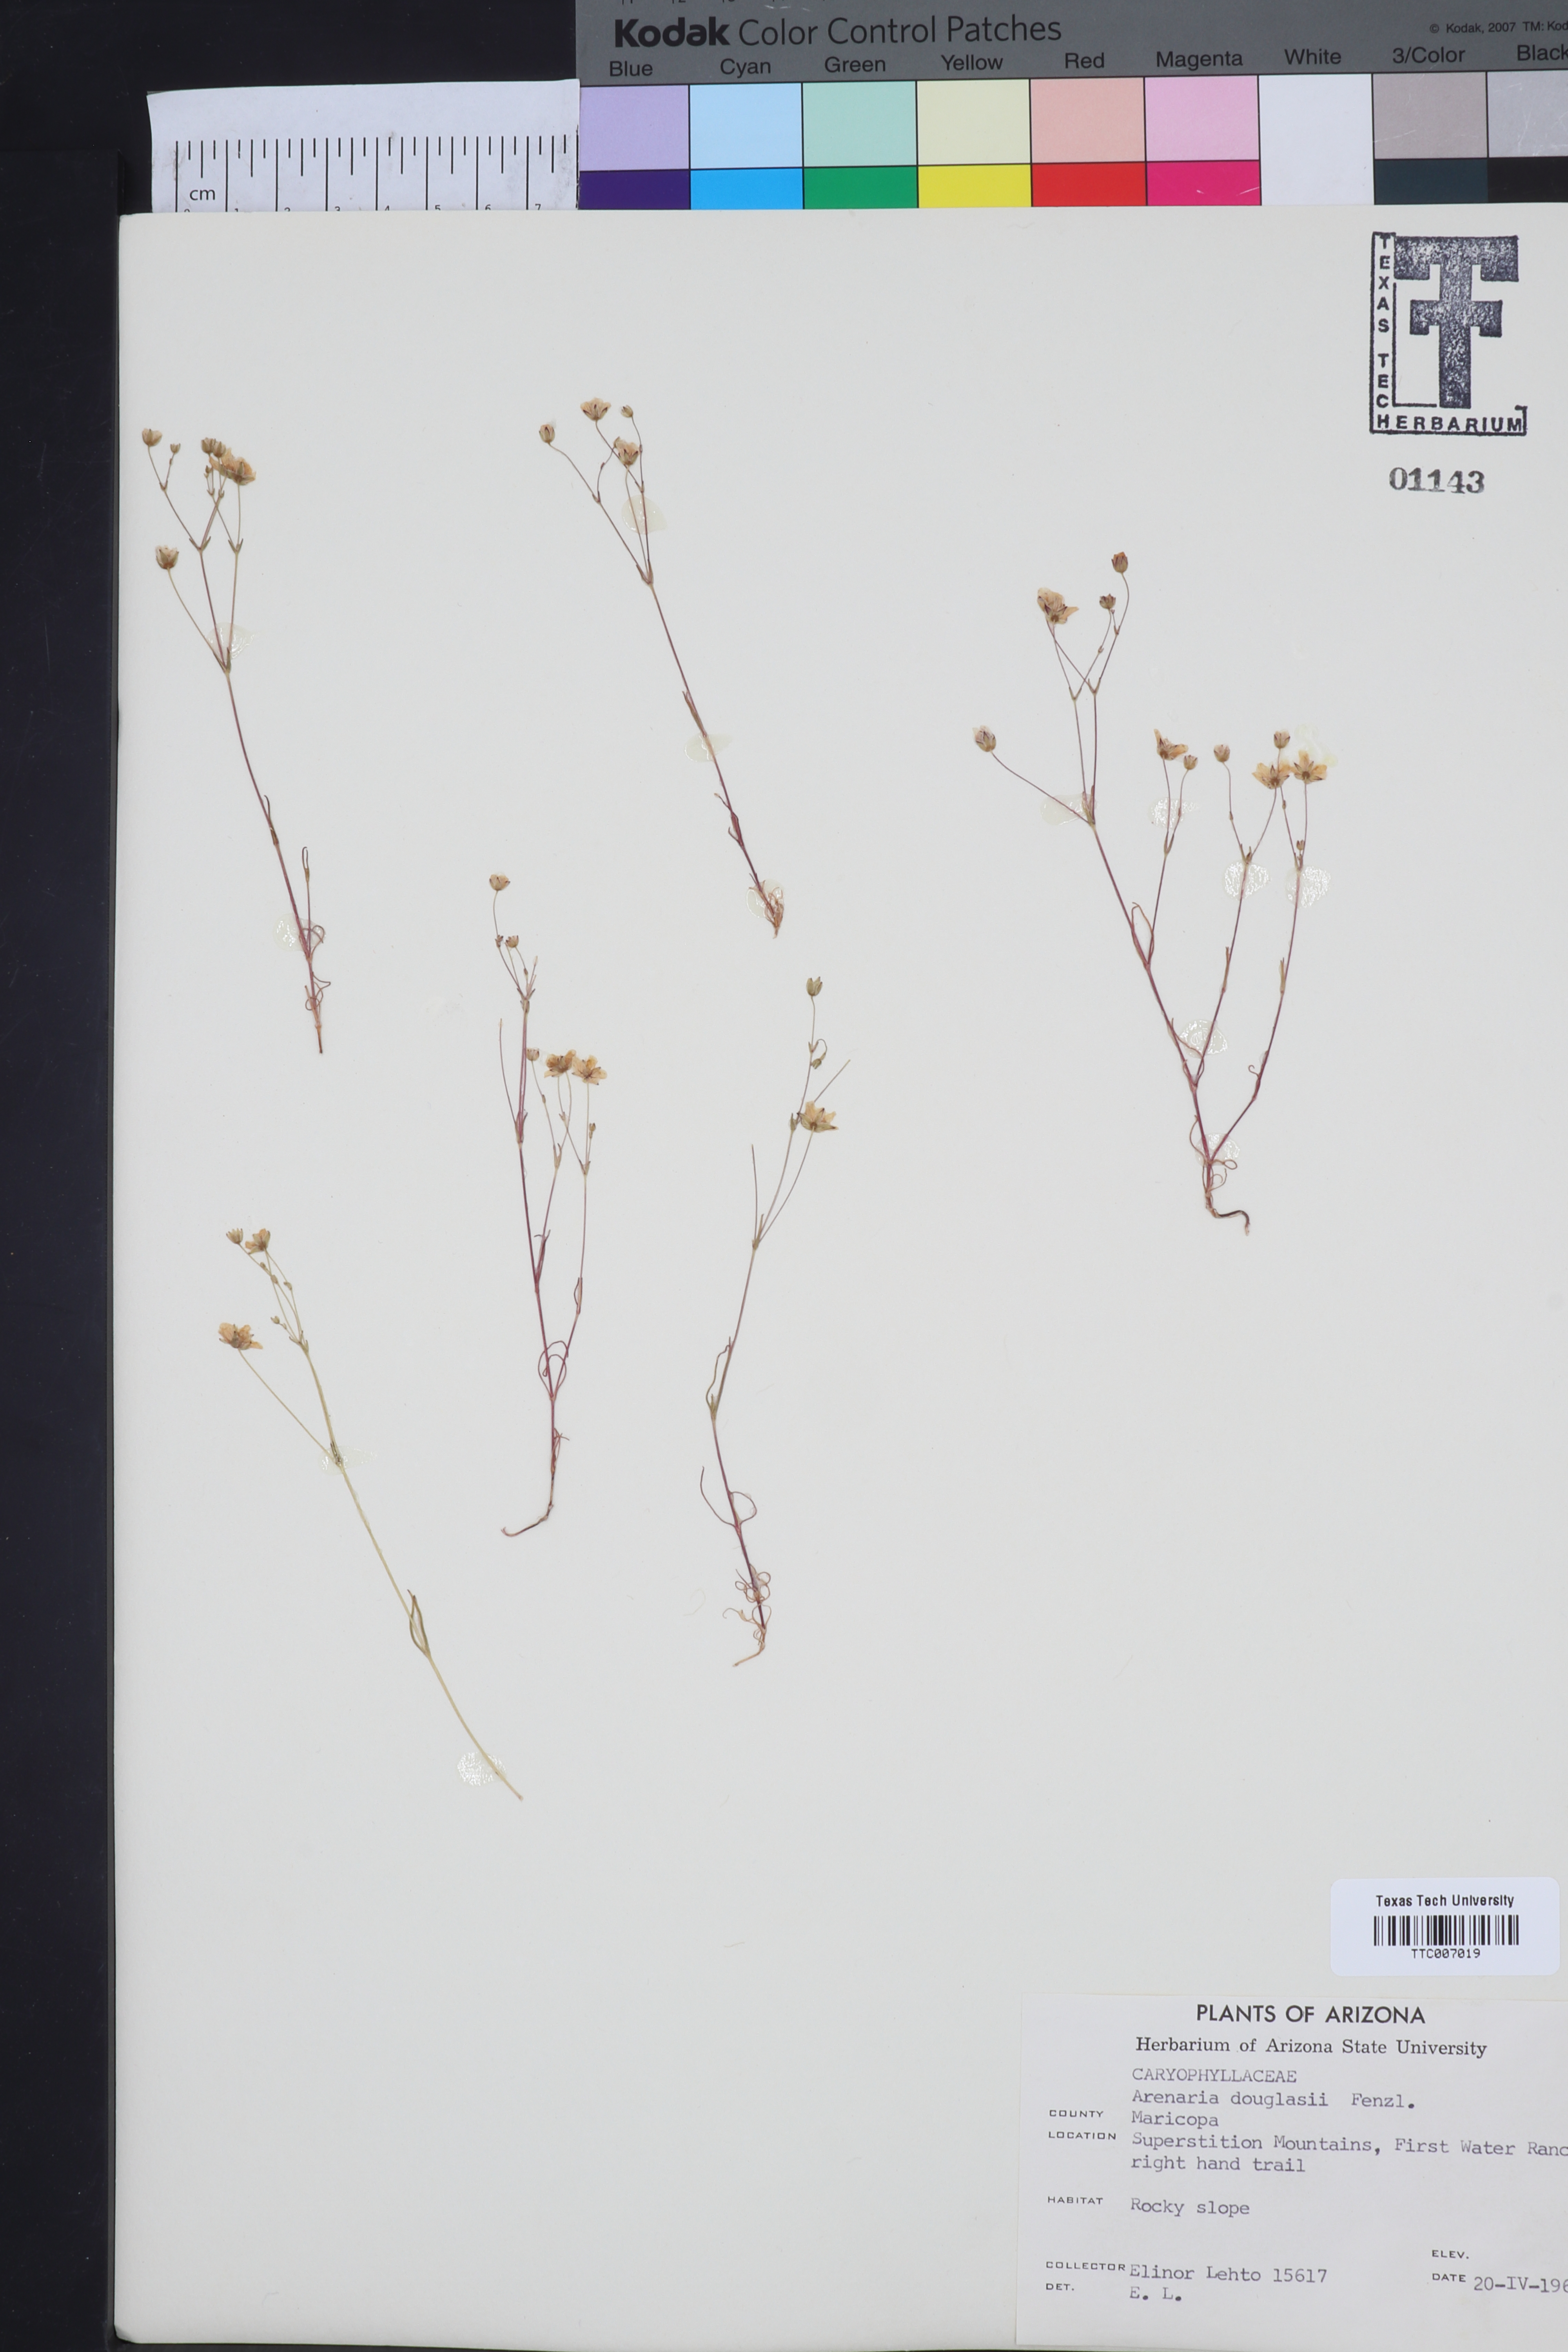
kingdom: Plantae
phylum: Tracheophyta
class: Magnoliopsida
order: Caryophyllales
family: Caryophyllaceae
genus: Sabulina
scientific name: Sabulina douglasii
